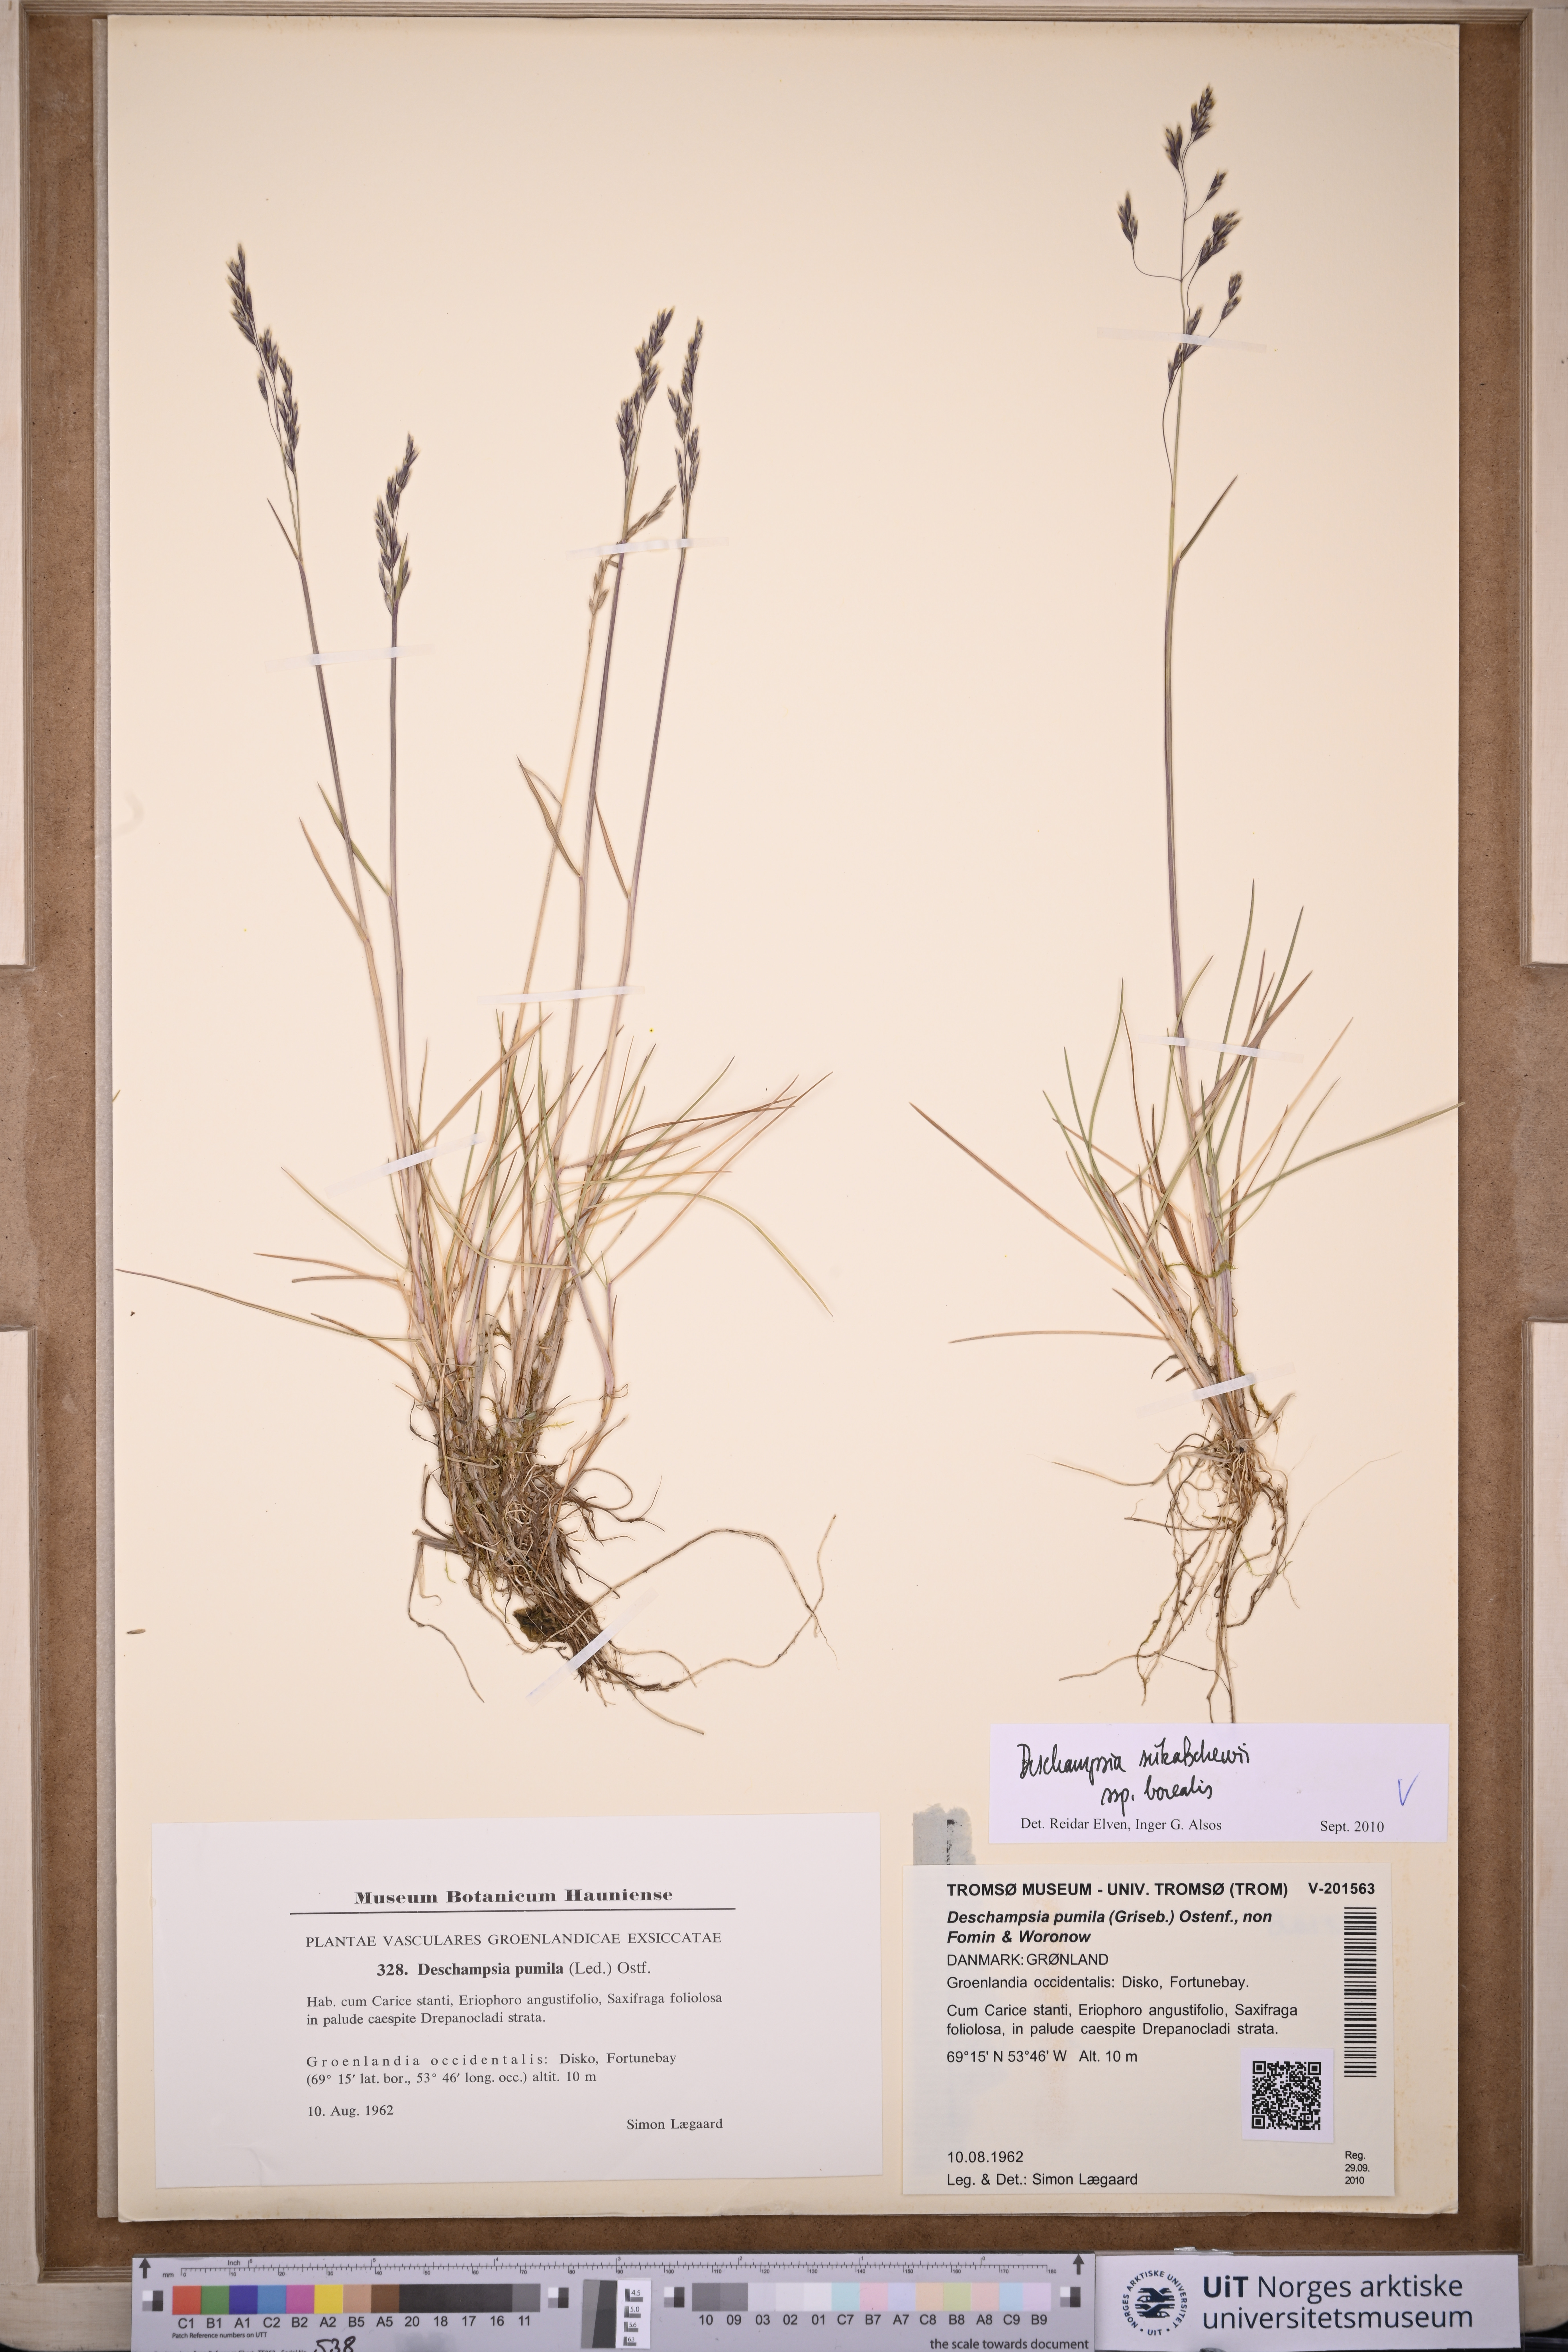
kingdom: Plantae
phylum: Tracheophyta
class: Liliopsida
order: Poales
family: Poaceae
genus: Deschampsia
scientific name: Deschampsia cespitosa
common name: Tufted hair-grass
